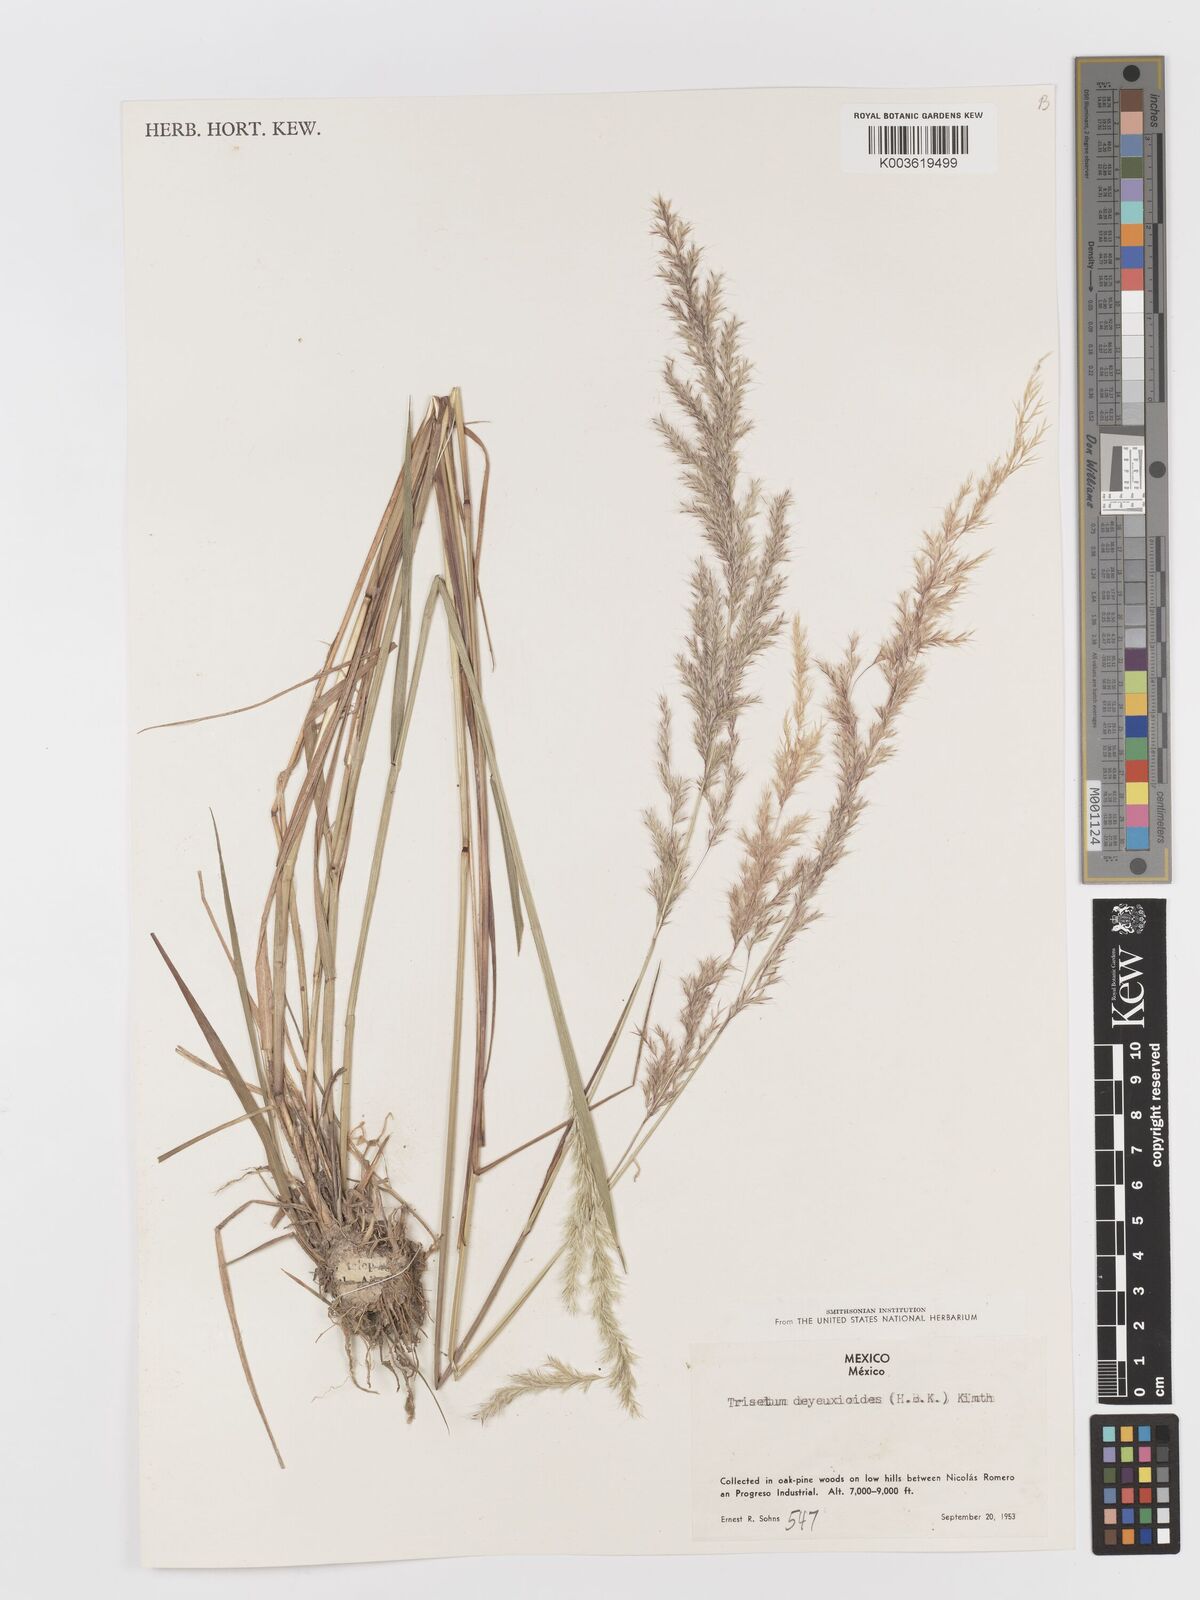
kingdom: Plantae
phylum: Tracheophyta
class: Liliopsida
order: Poales
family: Poaceae
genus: Peyritschia
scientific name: Peyritschia deyeuxioides
